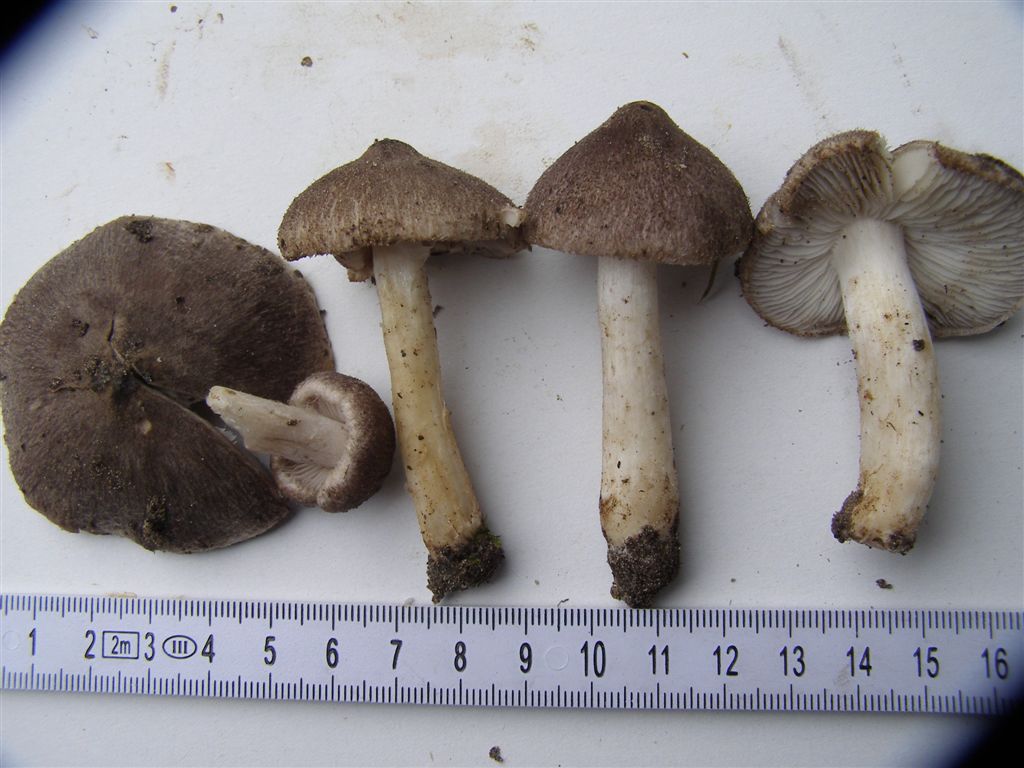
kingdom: Fungi
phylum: Basidiomycota
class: Agaricomycetes
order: Agaricales
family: Tricholomataceae
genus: Tricholoma
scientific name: Tricholoma terreum
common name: jordfarvet ridderhat
